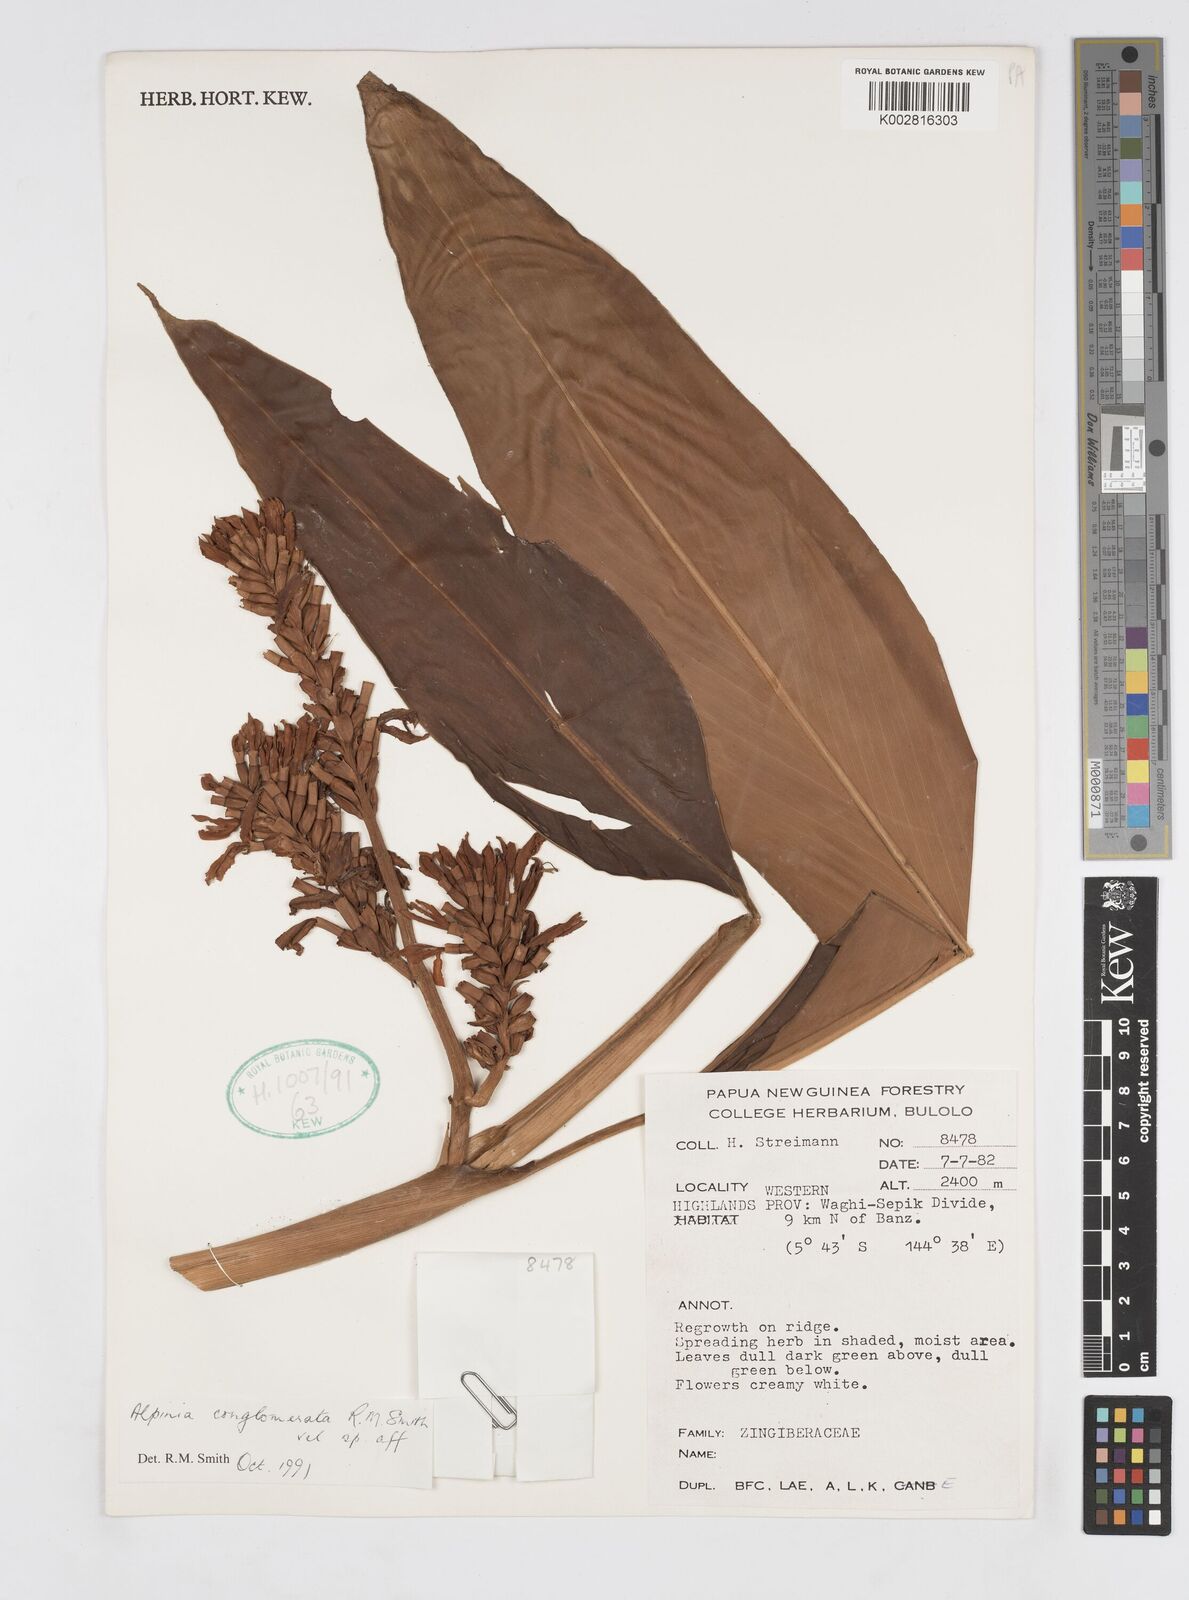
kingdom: Plantae
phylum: Tracheophyta
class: Liliopsida
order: Zingiberales
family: Zingiberaceae
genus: Alpinia
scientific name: Alpinia conglomerata
